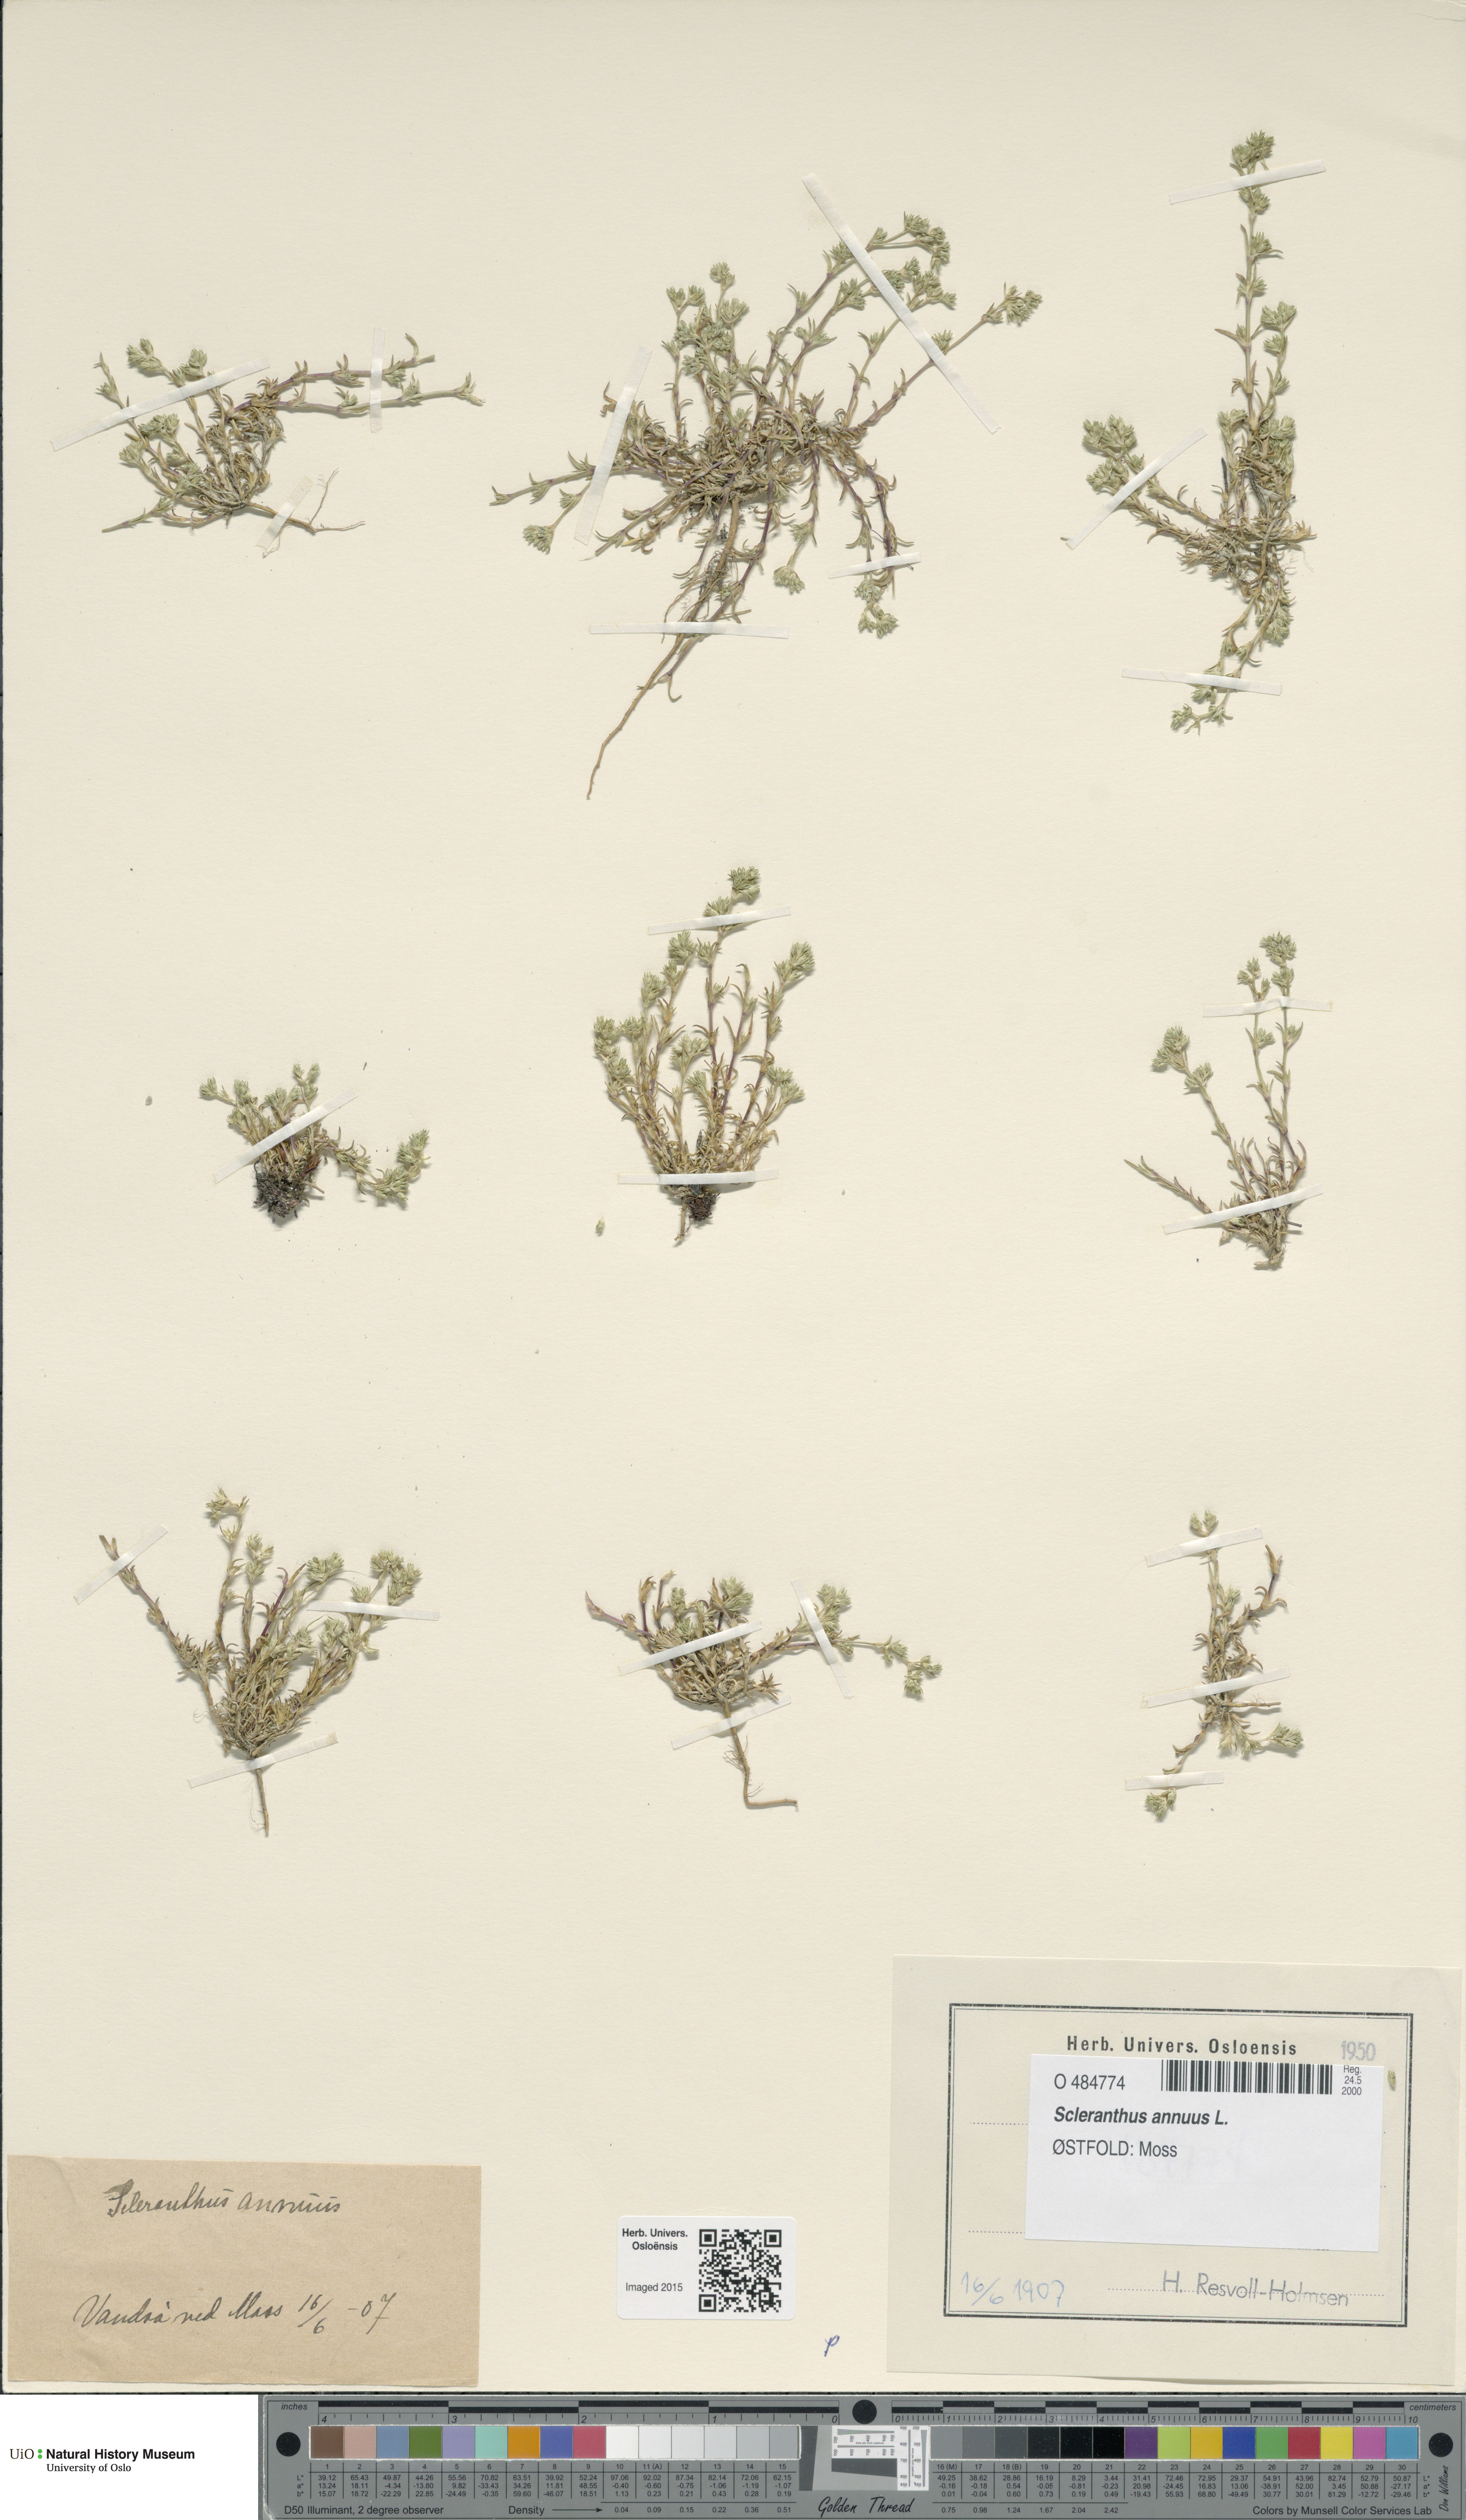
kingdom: Plantae
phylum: Tracheophyta
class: Magnoliopsida
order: Caryophyllales
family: Caryophyllaceae
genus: Scleranthus
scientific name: Scleranthus annuus
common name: Annual knawel
